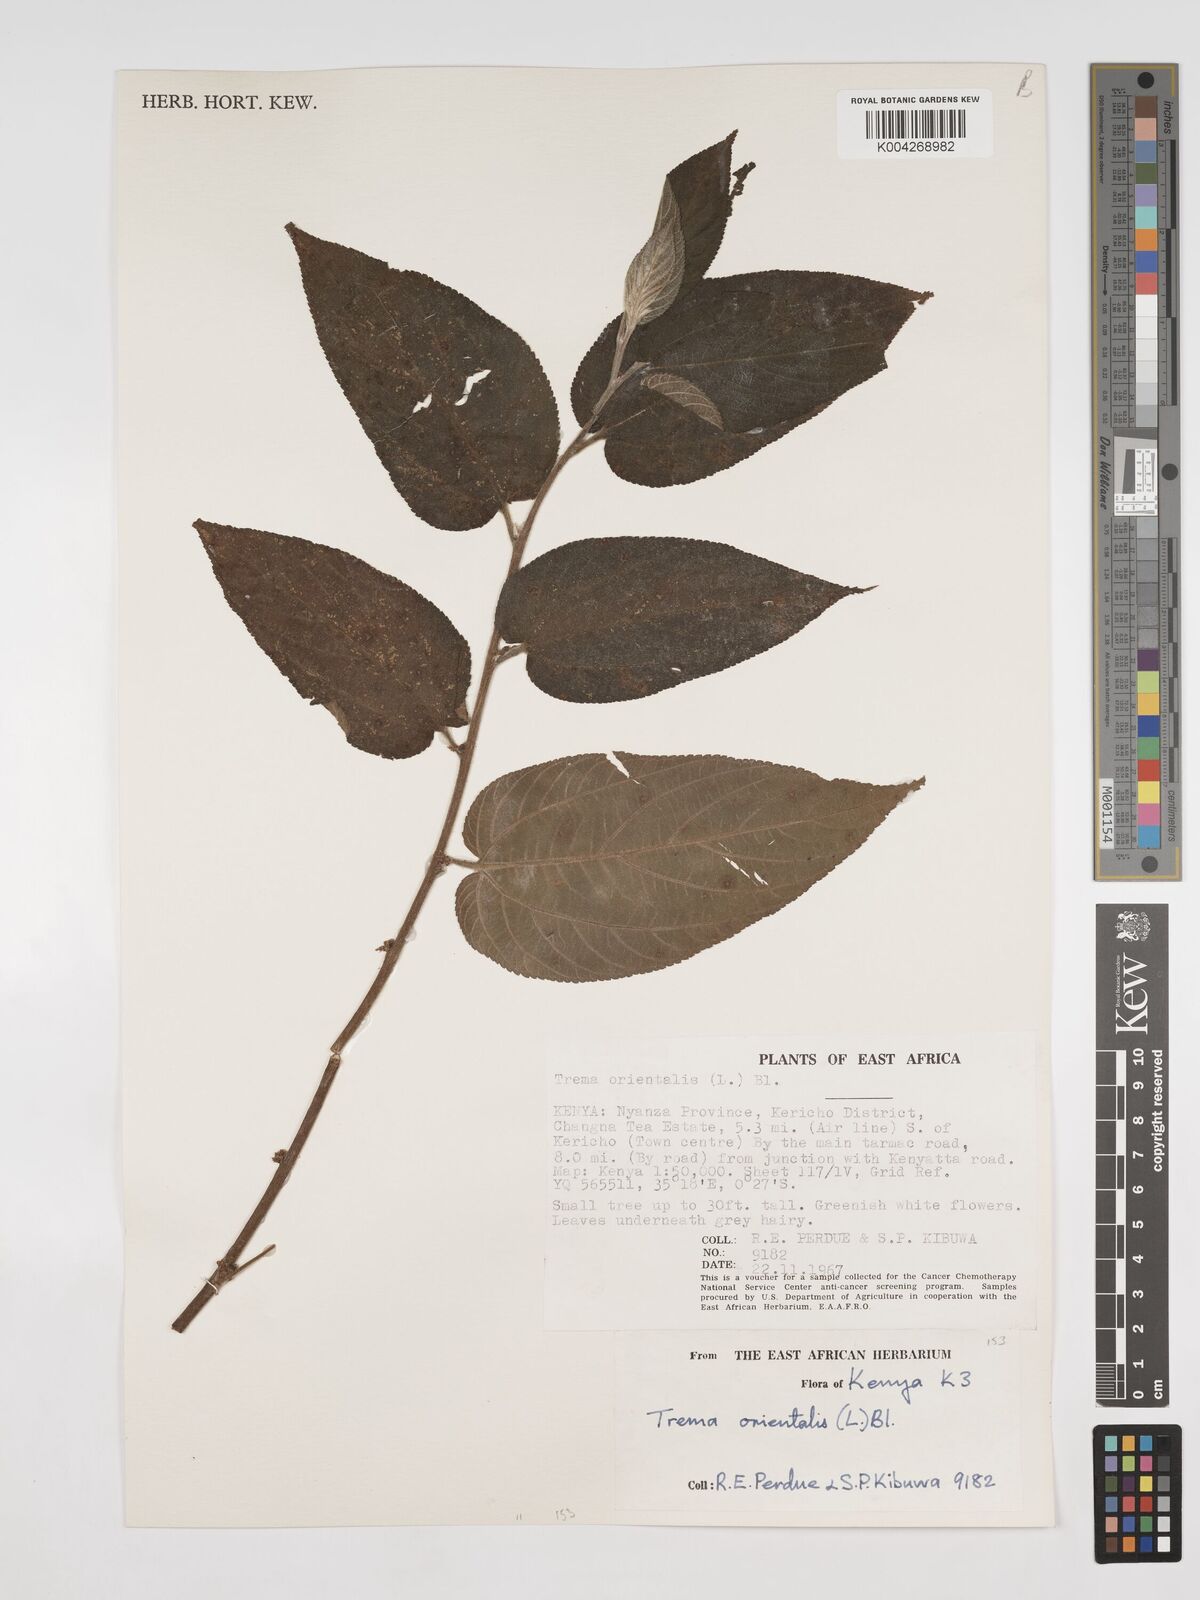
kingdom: Plantae
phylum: Tracheophyta
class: Magnoliopsida
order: Rosales
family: Cannabaceae
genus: Trema
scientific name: Trema orientale
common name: Indian charcoal tree
